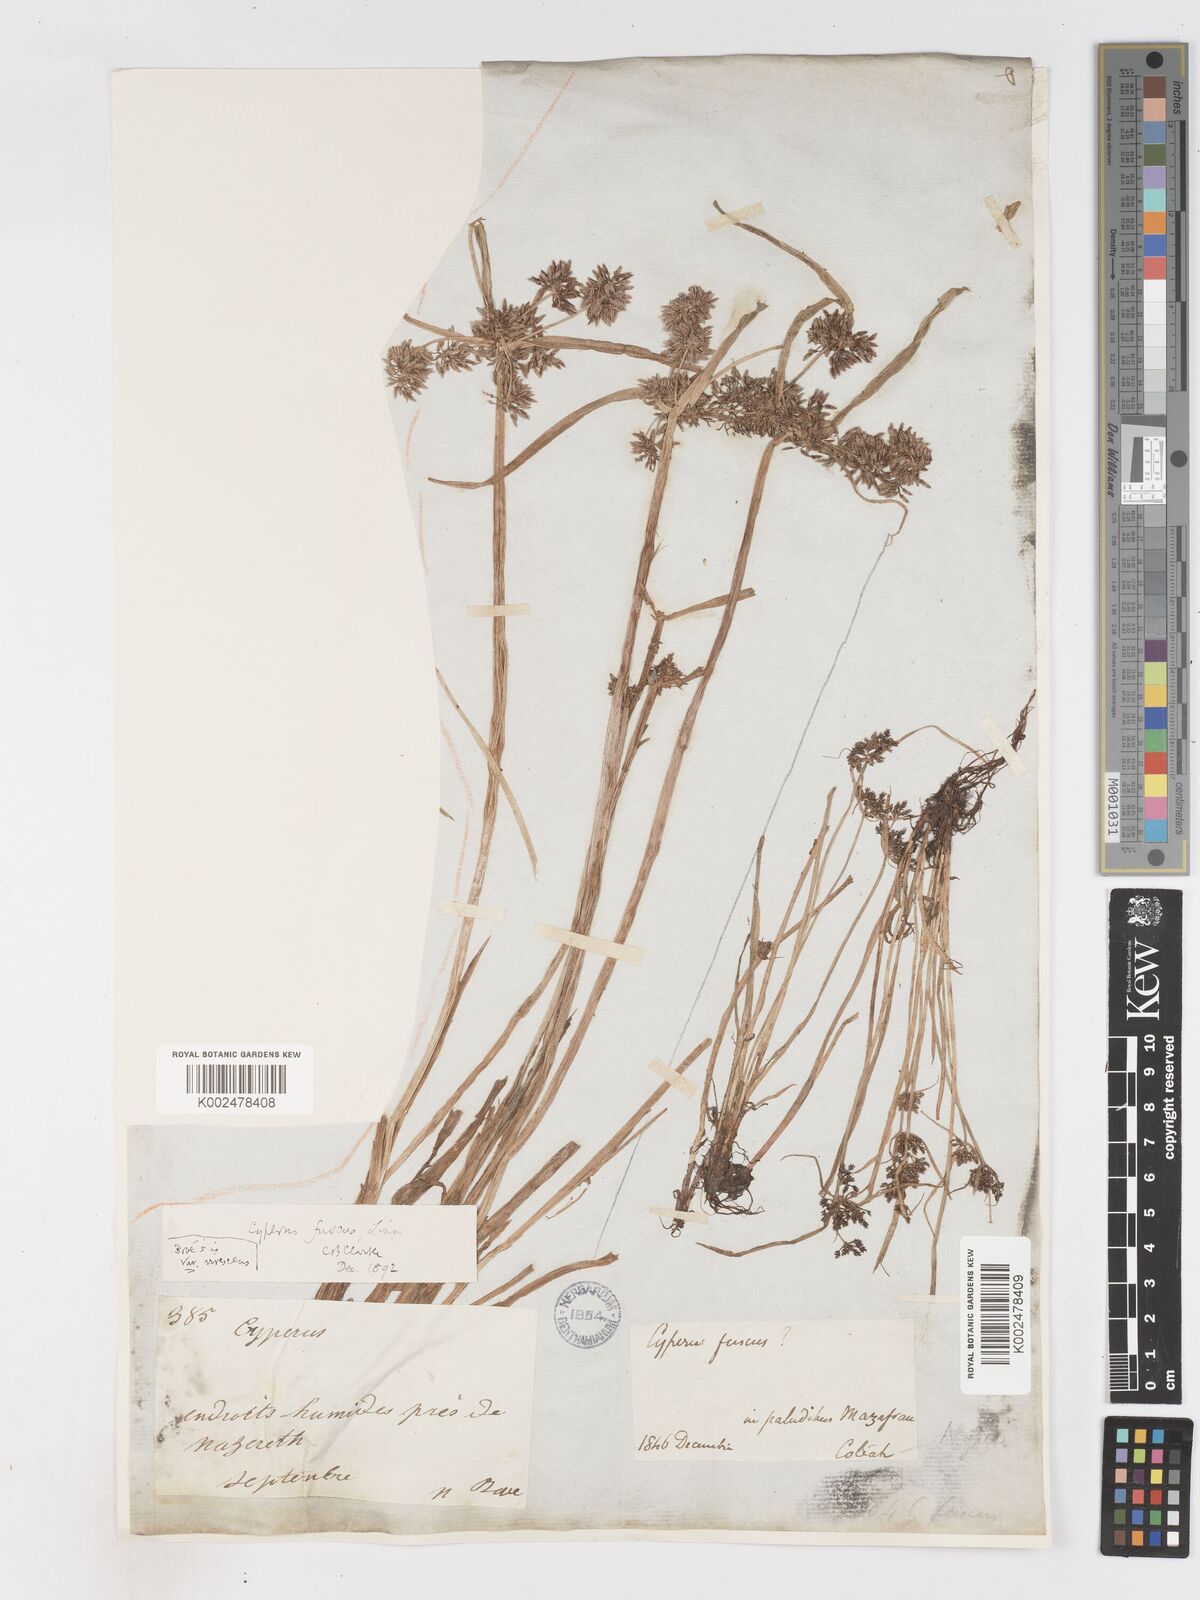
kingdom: Plantae
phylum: Tracheophyta
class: Liliopsida
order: Poales
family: Cyperaceae
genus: Cyperus
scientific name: Cyperus fuscus
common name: Brown galingale
